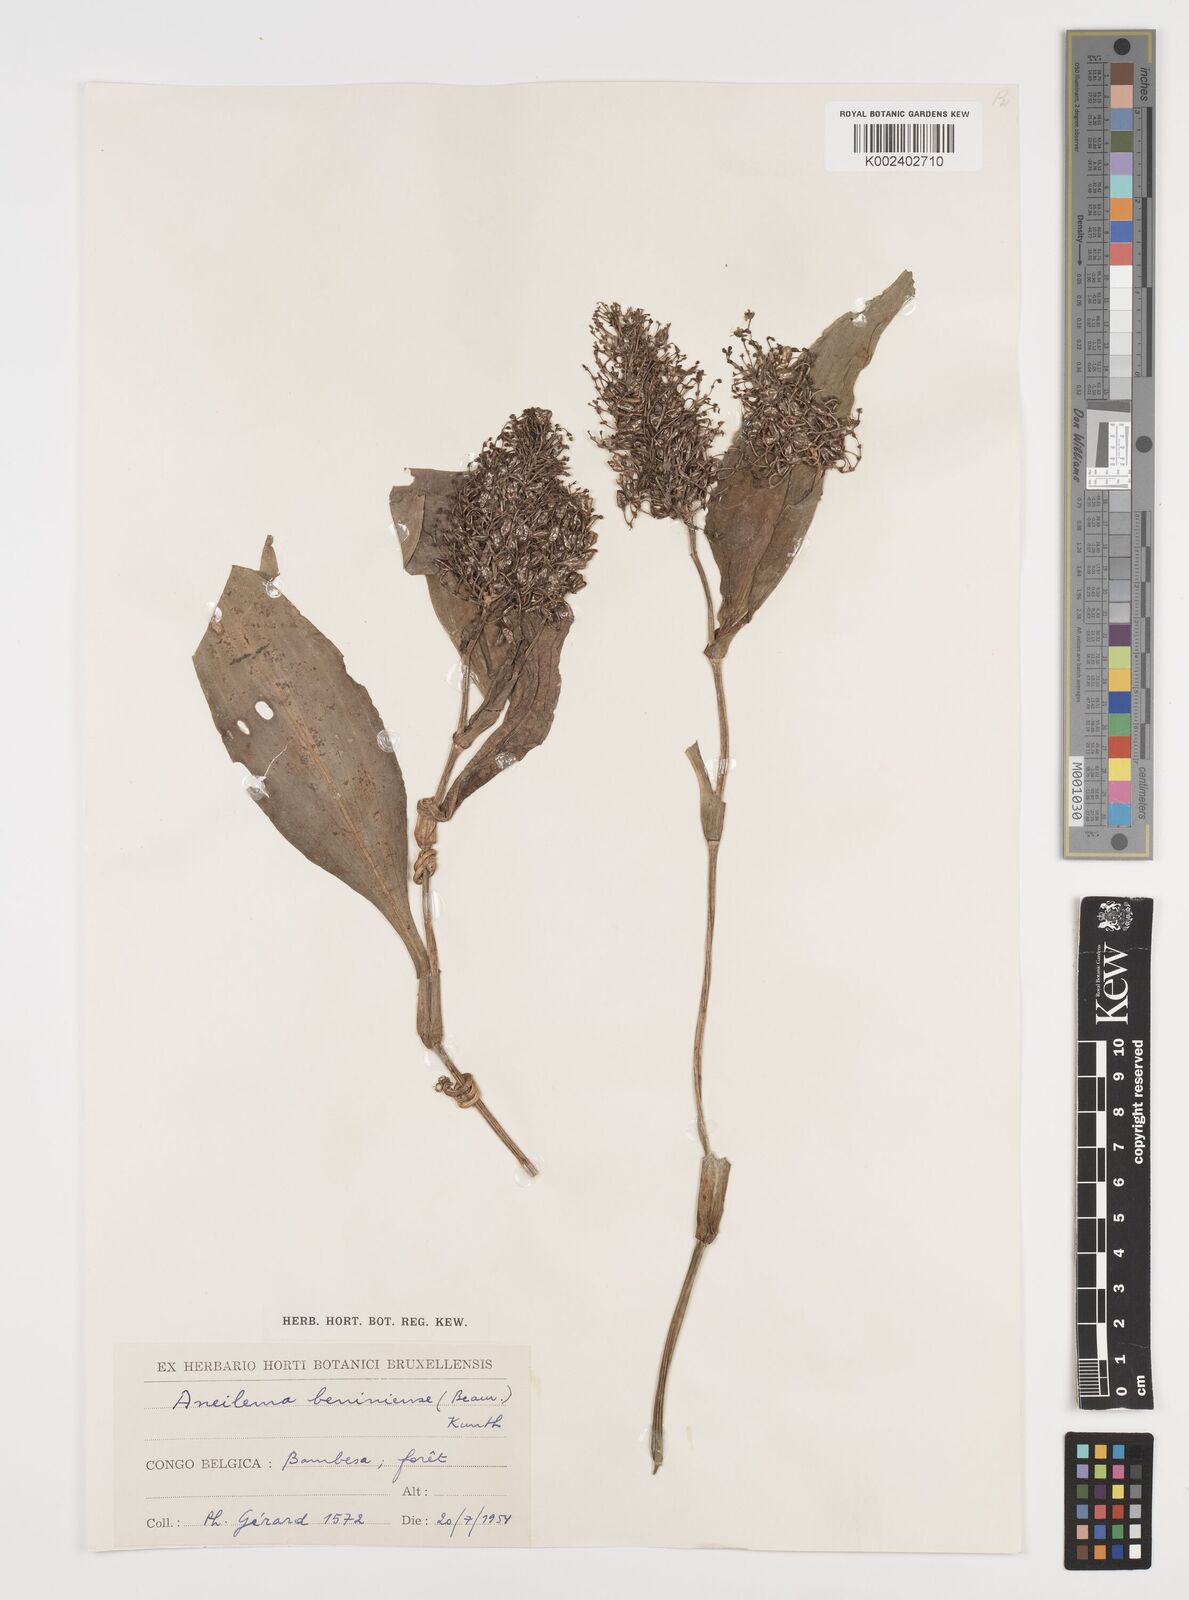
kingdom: Plantae
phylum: Tracheophyta
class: Liliopsida
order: Commelinales
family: Commelinaceae
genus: Aneilema
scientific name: Aneilema beniniense
